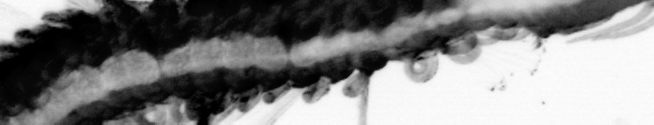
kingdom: Animalia
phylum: Annelida
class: Polychaeta
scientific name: Polychaeta
